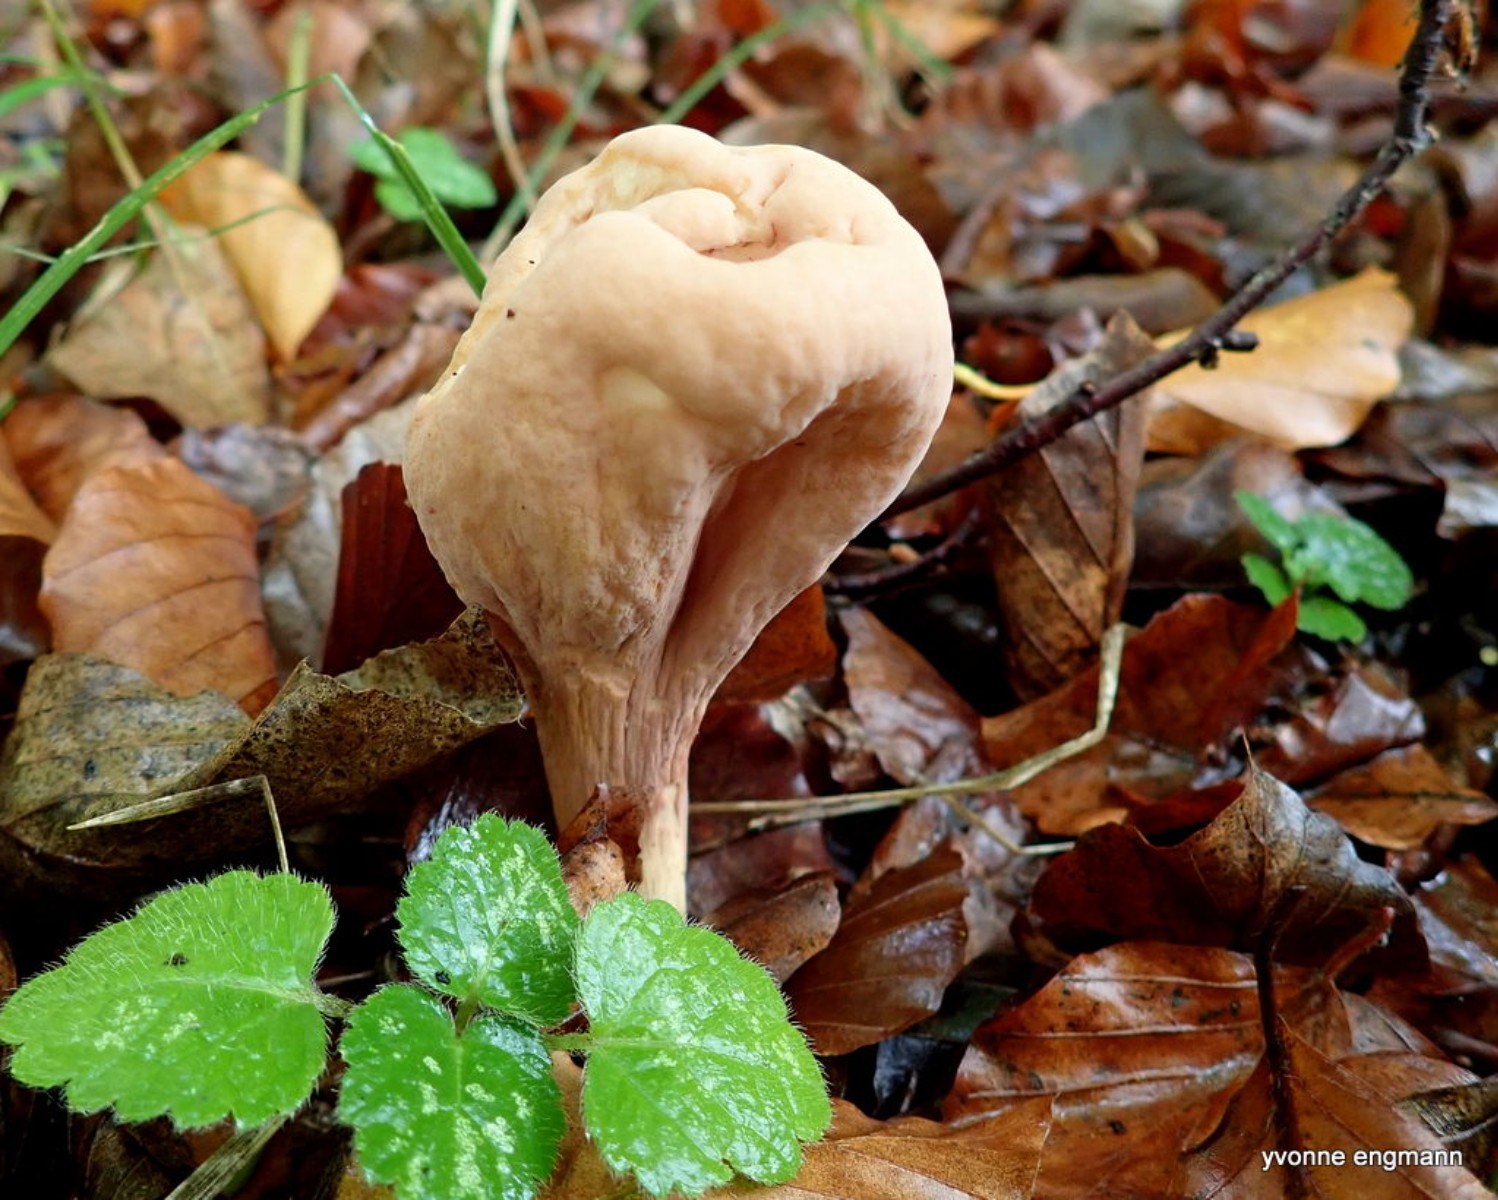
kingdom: Fungi
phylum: Basidiomycota
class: Agaricomycetes
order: Gomphales
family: Clavariadelphaceae
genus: Clavariadelphus
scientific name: Clavariadelphus pistillaris
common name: herkules-kæmpekølle
